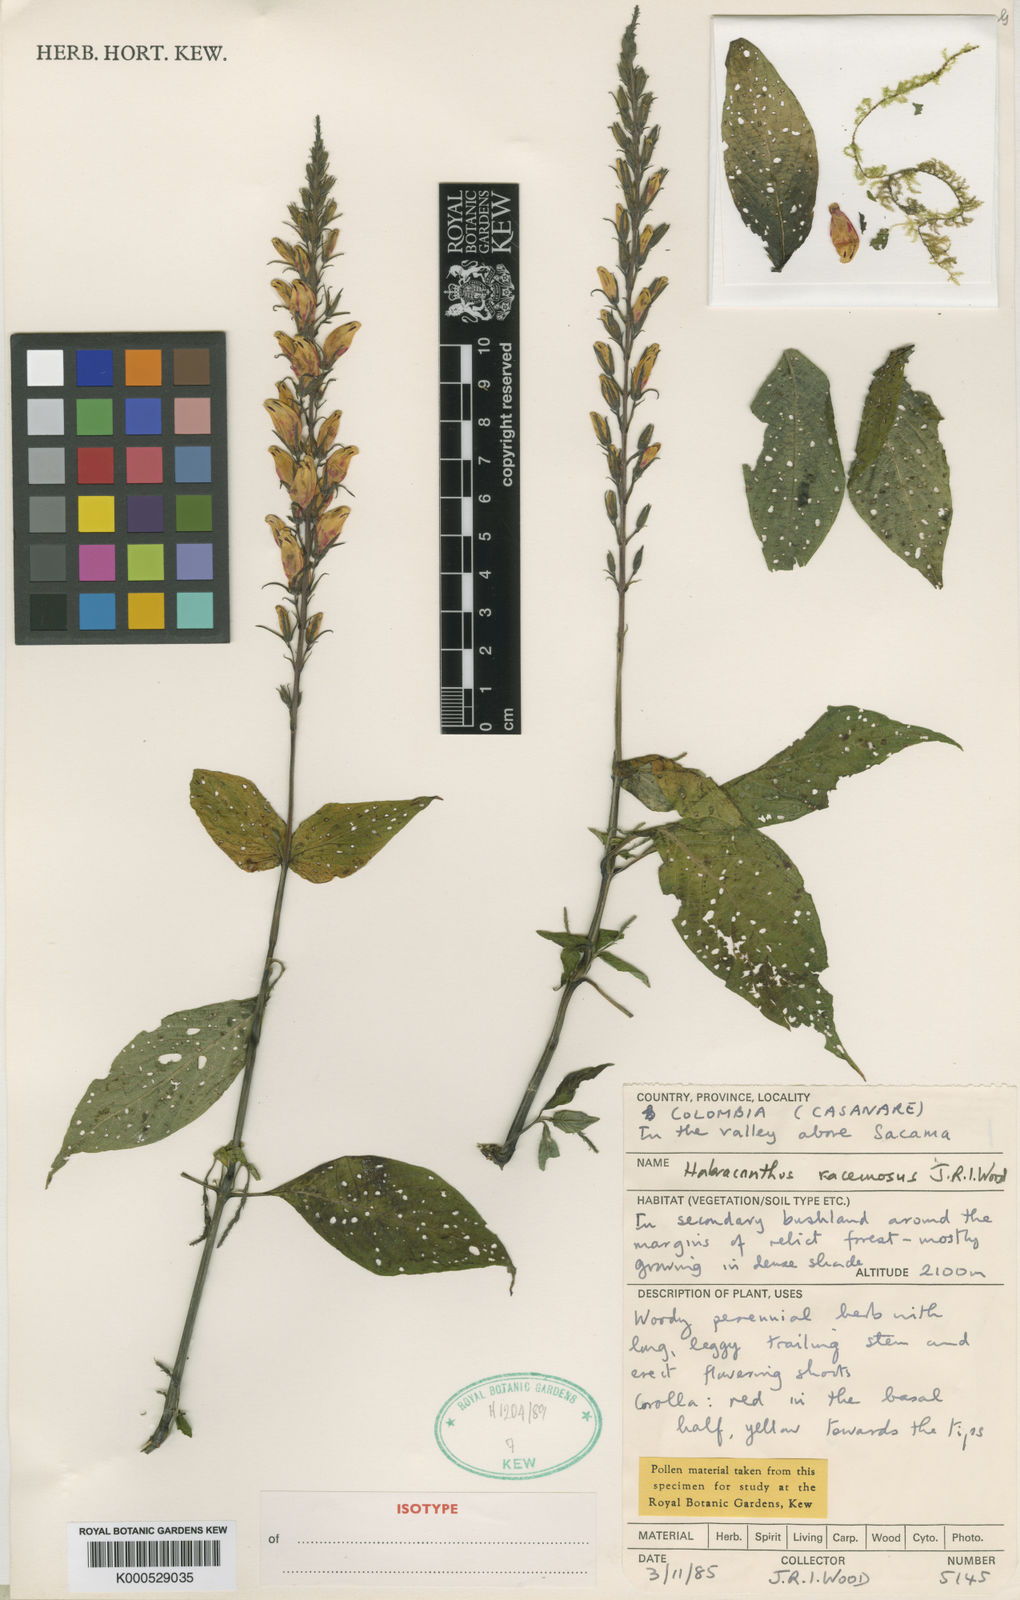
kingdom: Plantae
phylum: Tracheophyta
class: Magnoliopsida
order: Lamiales
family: Acanthaceae
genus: Stenostephanus
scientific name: Stenostephanus racemosus
